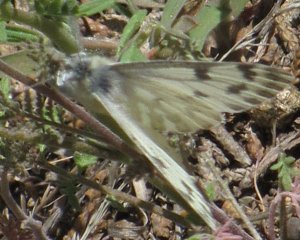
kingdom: Animalia
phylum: Arthropoda
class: Insecta
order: Lepidoptera
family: Pieridae
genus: Pontia
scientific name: Pontia sisymbrii
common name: Spring White
